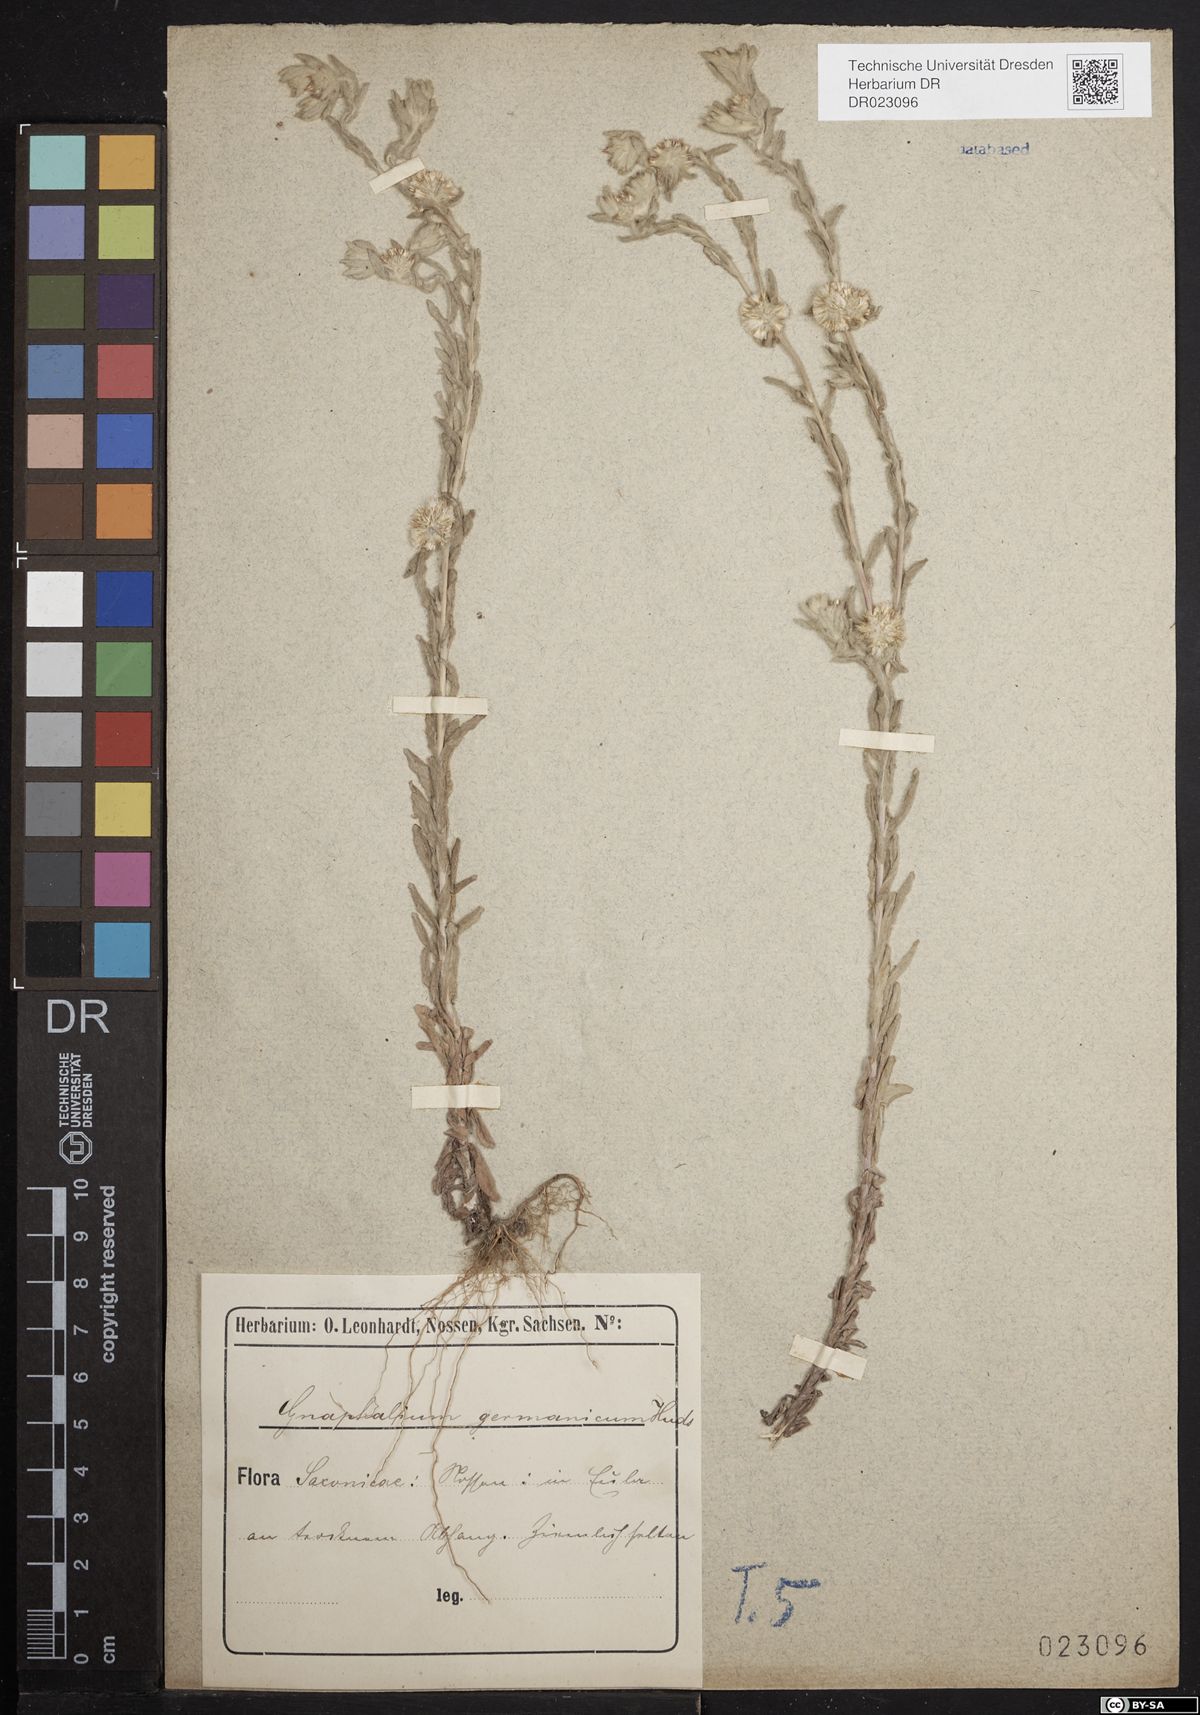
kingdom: Plantae
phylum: Tracheophyta
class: Magnoliopsida
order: Asterales
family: Asteraceae
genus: Filago
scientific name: Filago germanica
